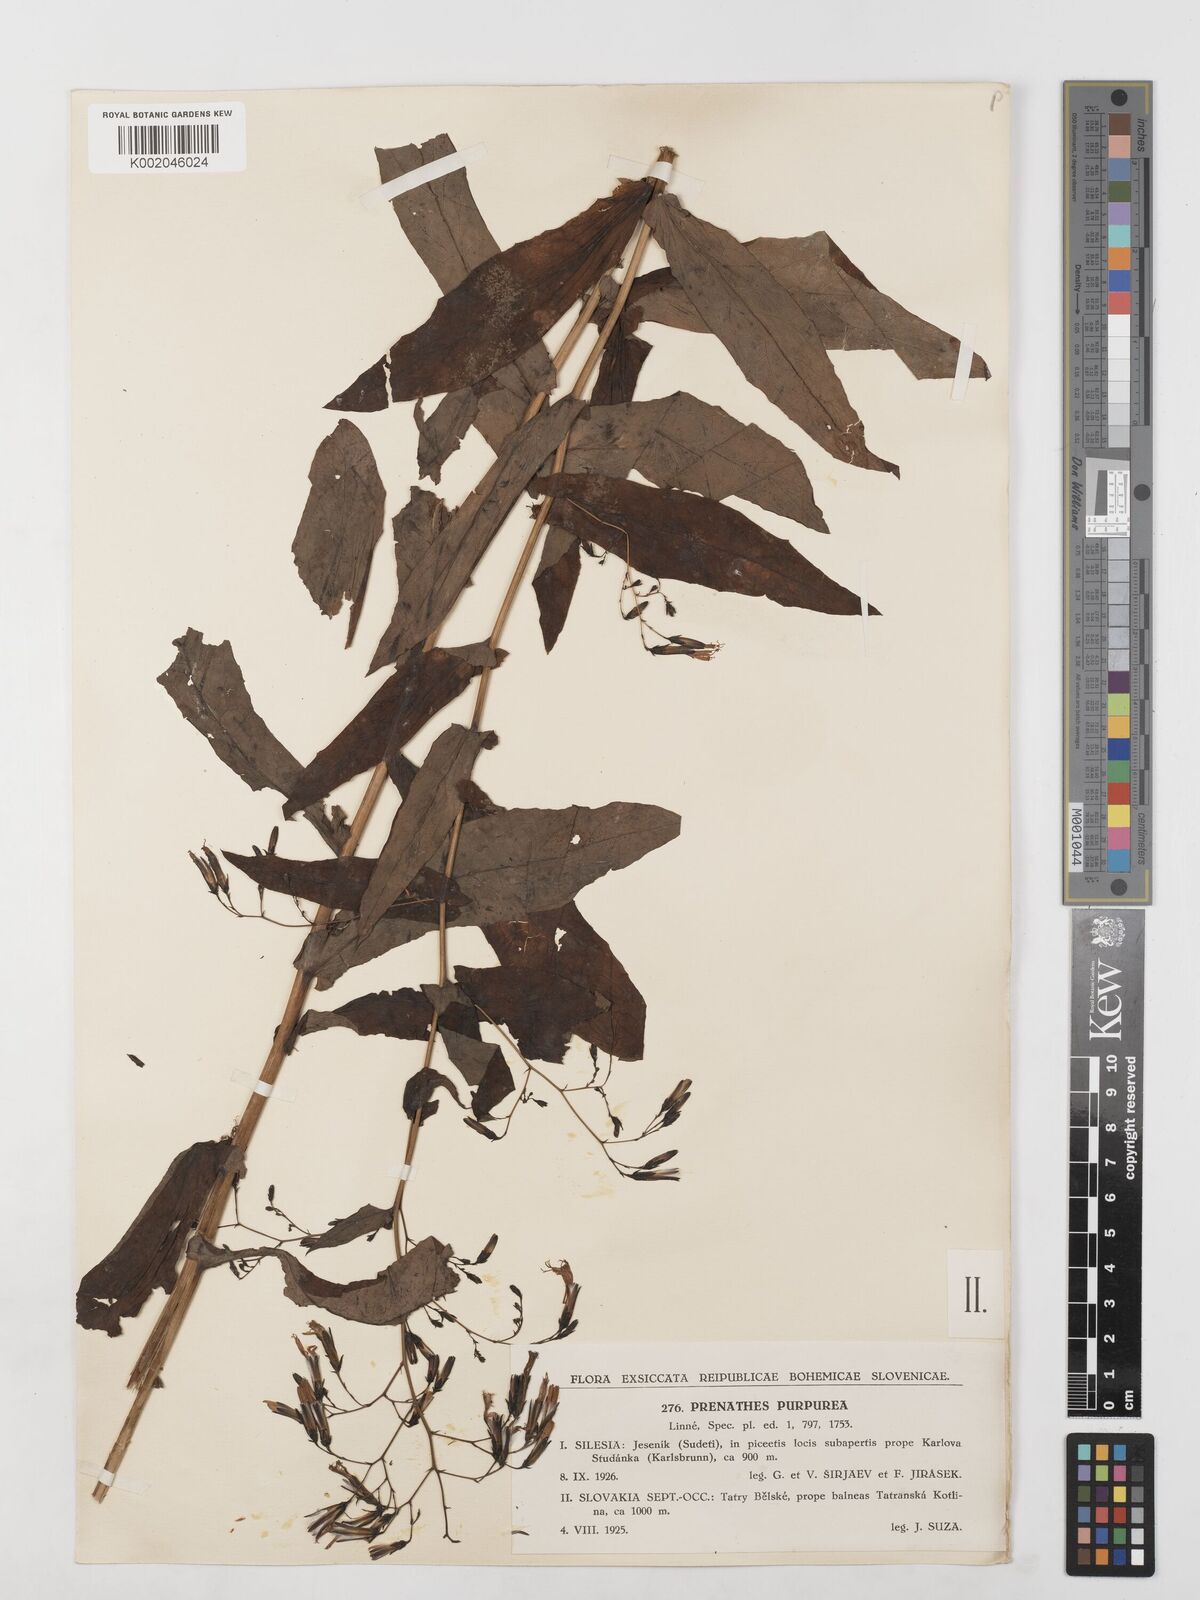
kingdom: Plantae
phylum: Tracheophyta
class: Magnoliopsida
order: Asterales
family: Asteraceae
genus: Prenanthes
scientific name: Prenanthes purpurea
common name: Purple lettuce
